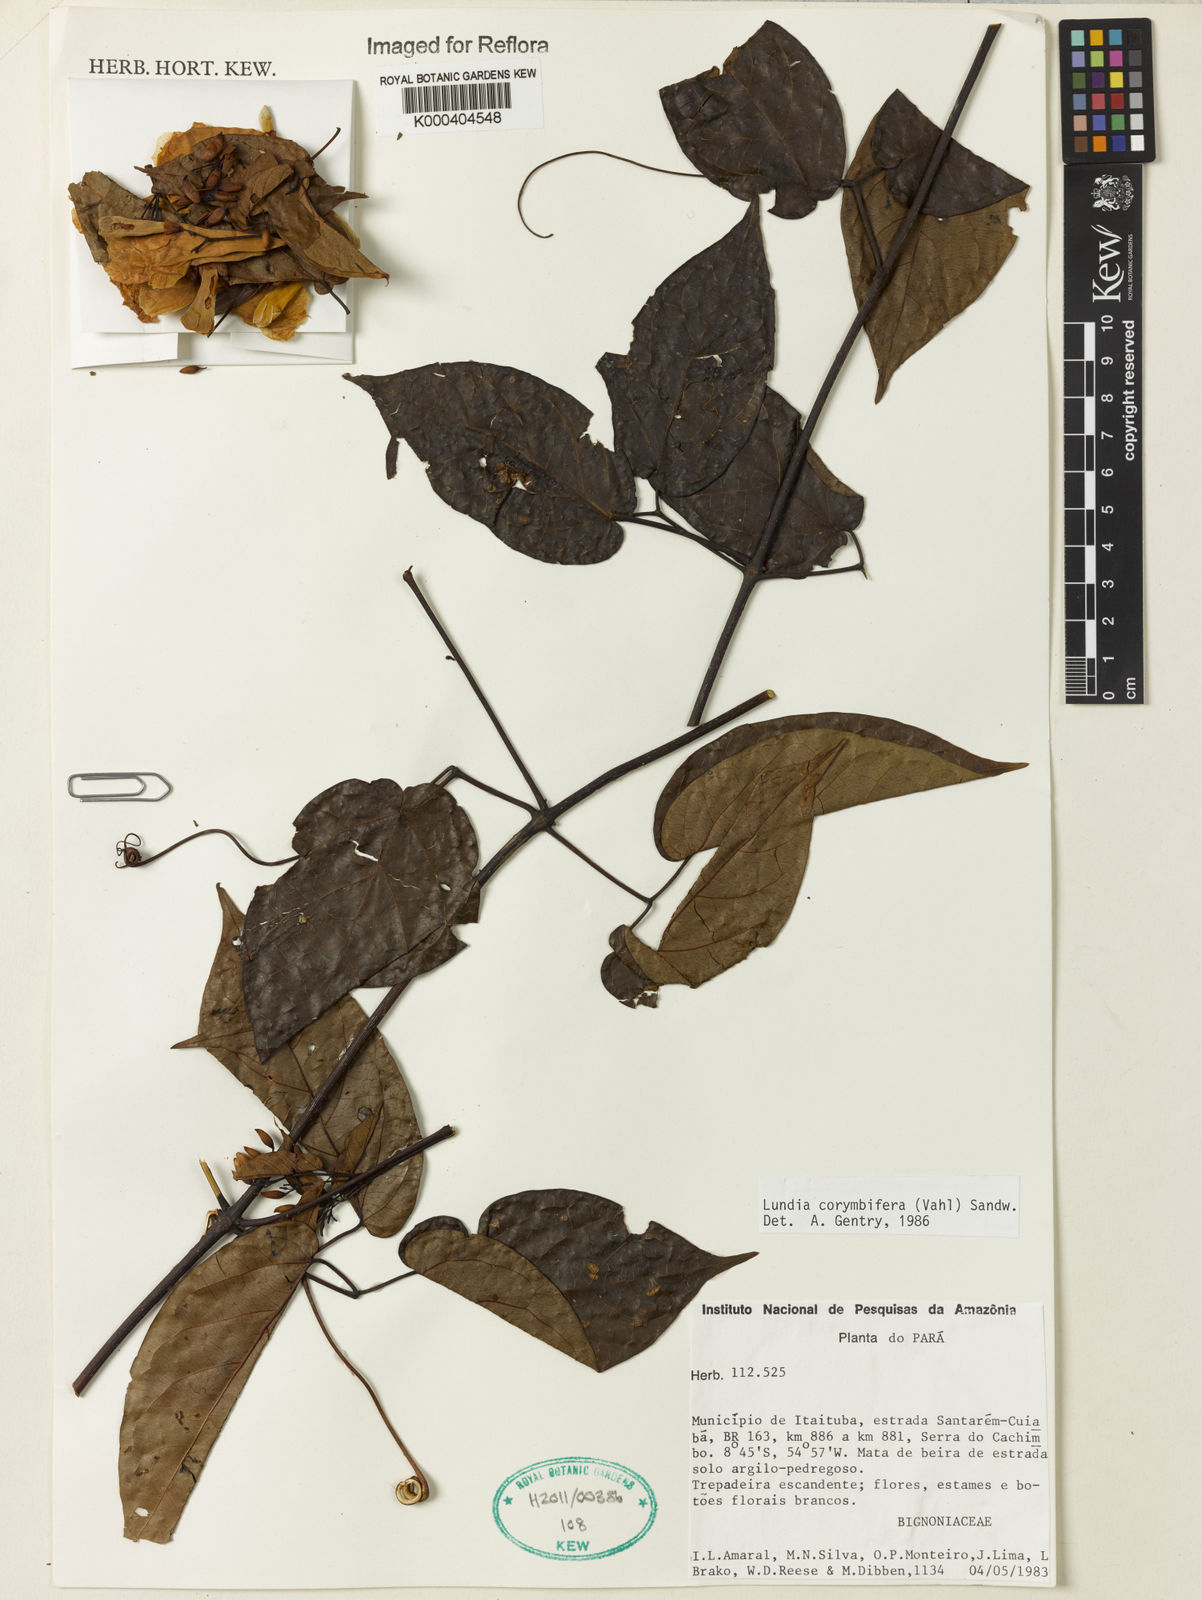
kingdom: Plantae
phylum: Tracheophyta
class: Magnoliopsida
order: Lamiales
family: Bignoniaceae
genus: Lundia
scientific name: Lundia corymbifera
